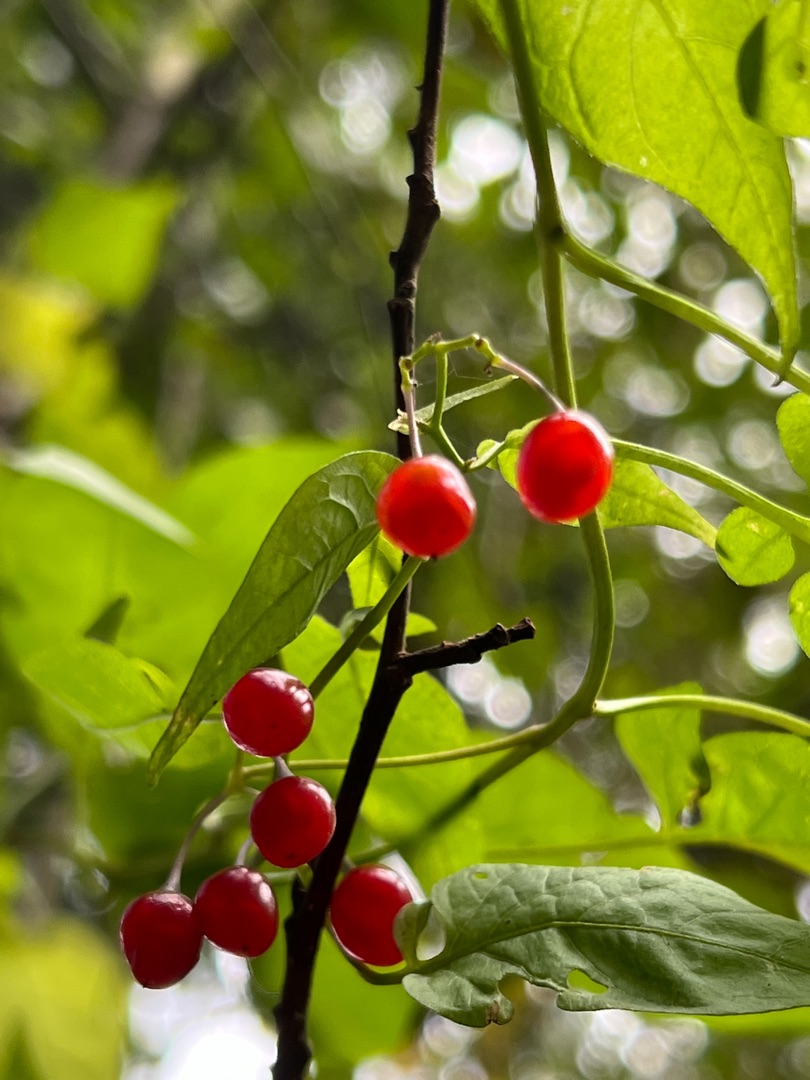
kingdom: Plantae
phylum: Tracheophyta
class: Magnoliopsida
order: Solanales
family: Solanaceae
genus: Solanum
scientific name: Solanum dulcamara
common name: Bittersød natskygge
